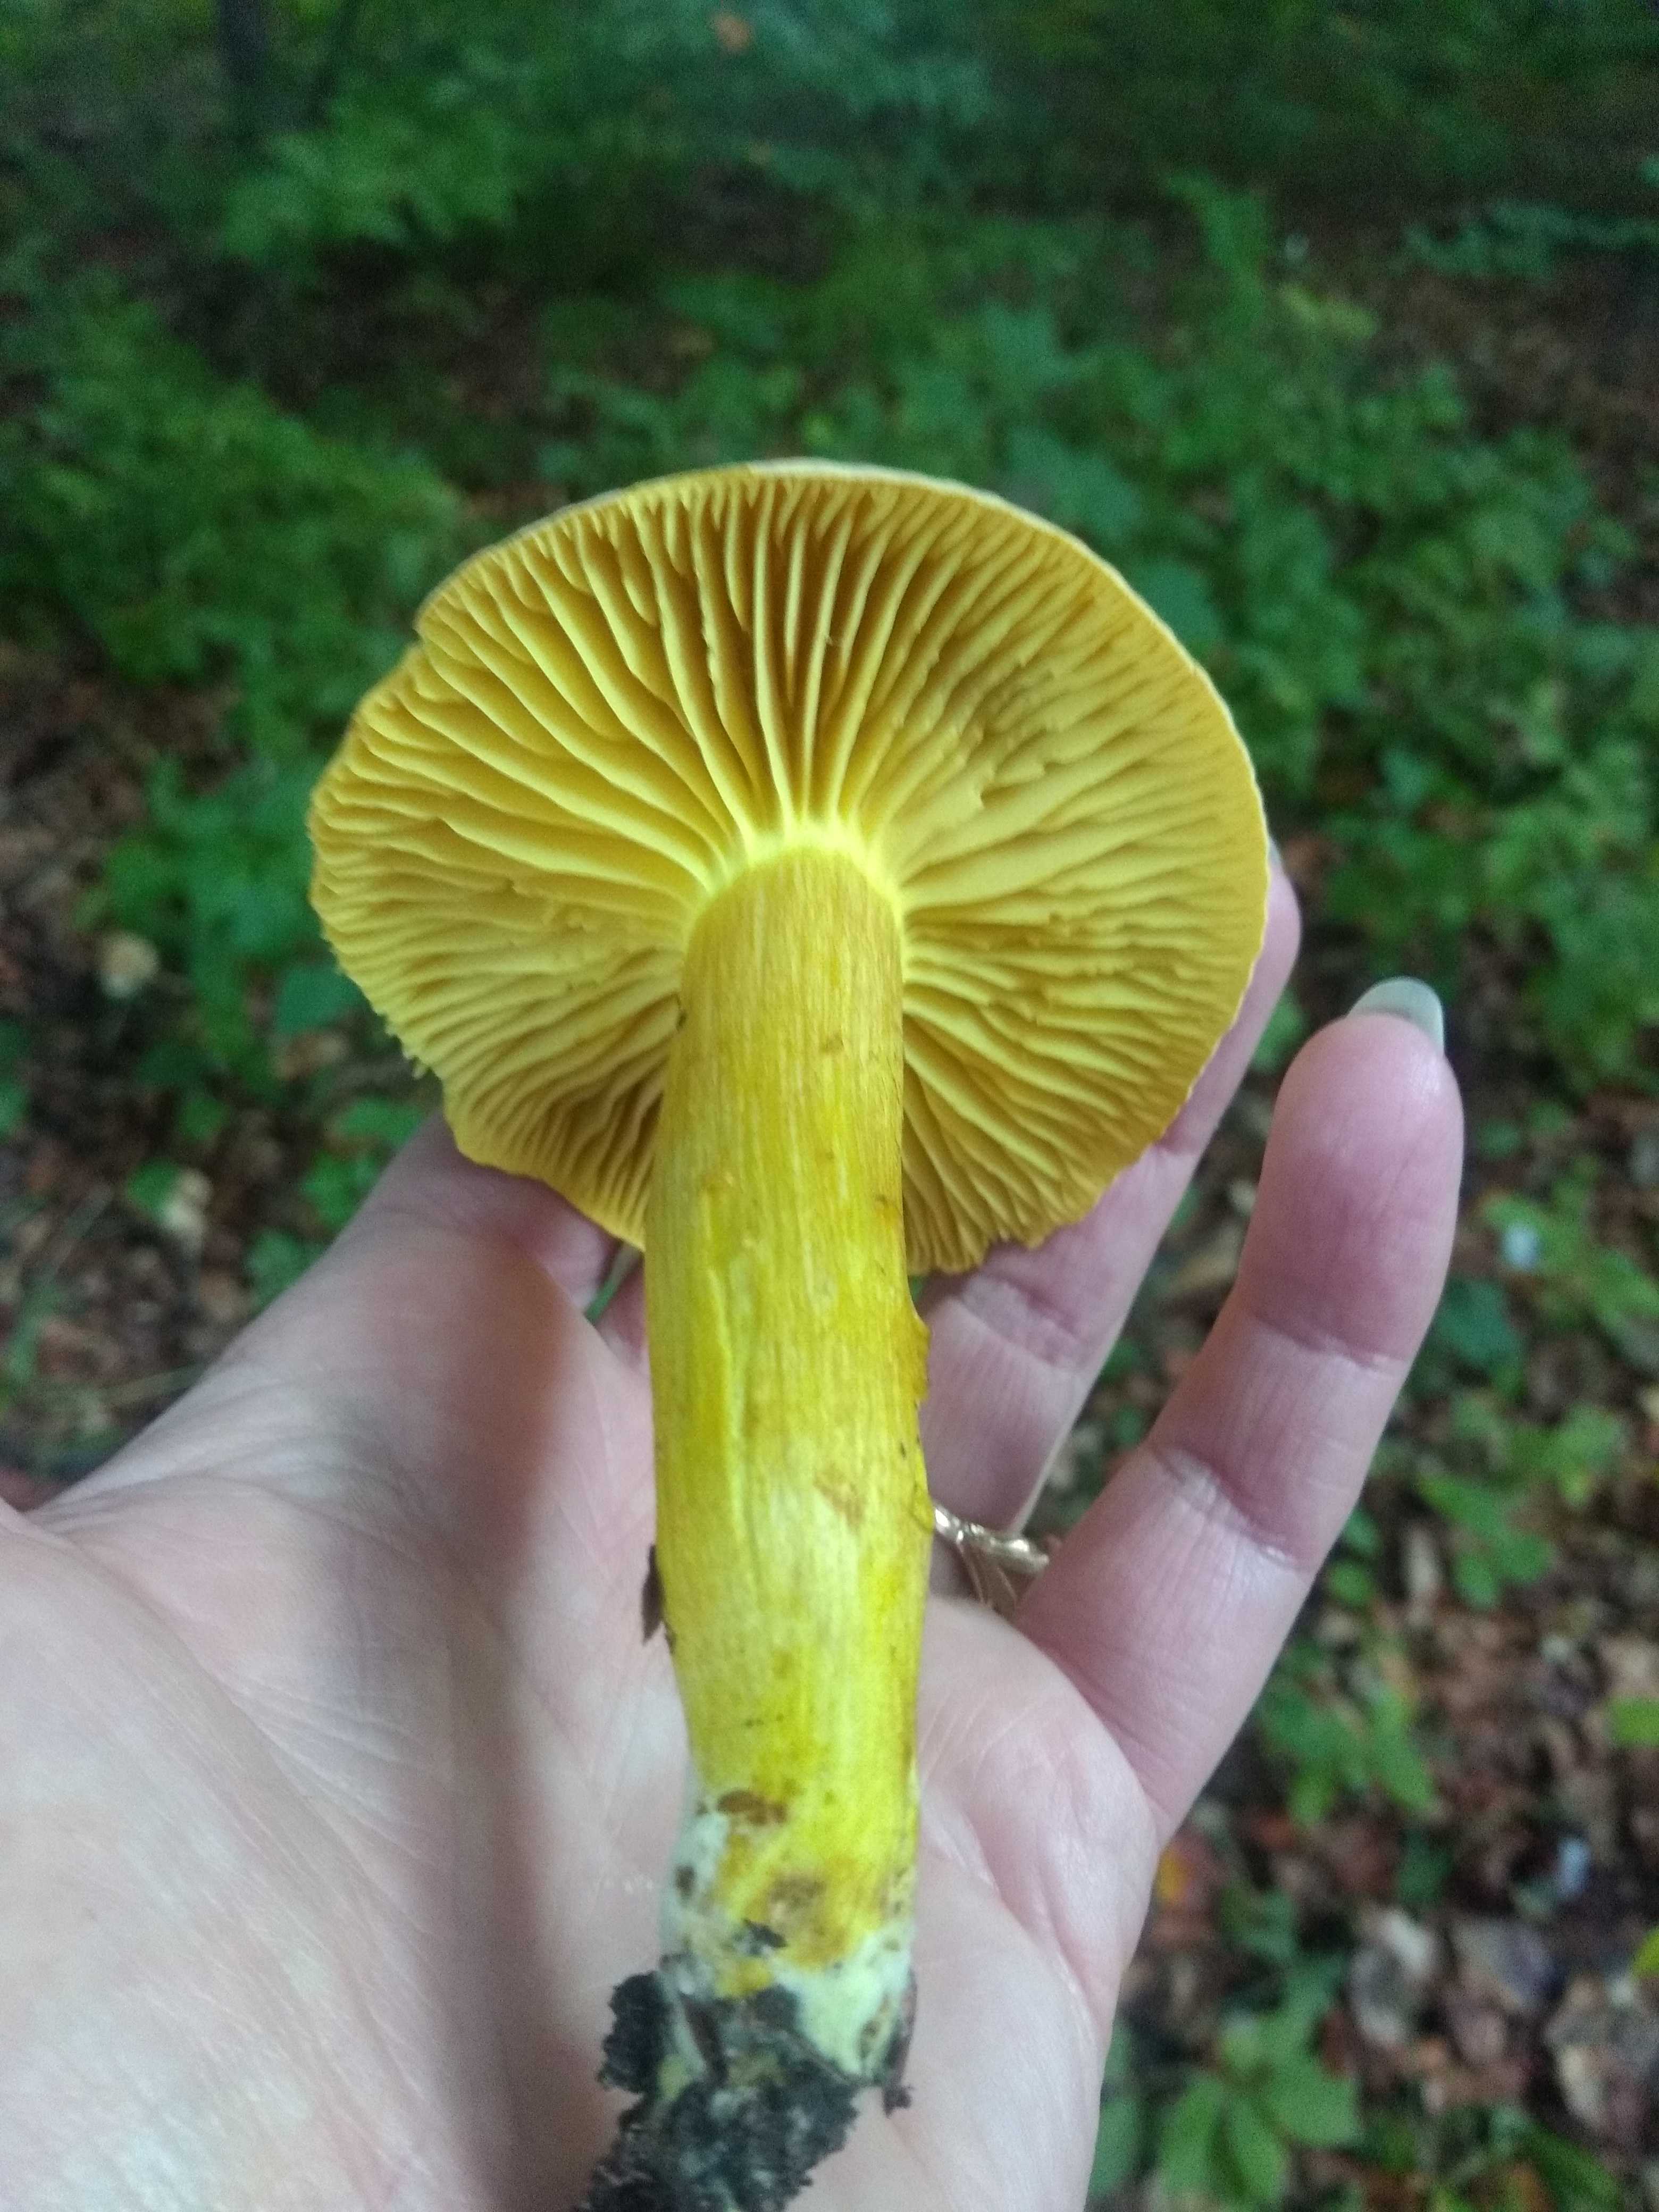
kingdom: Fungi
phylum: Basidiomycota
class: Agaricomycetes
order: Agaricales
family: Tricholomataceae
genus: Tricholoma
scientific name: Tricholoma sulphureum
